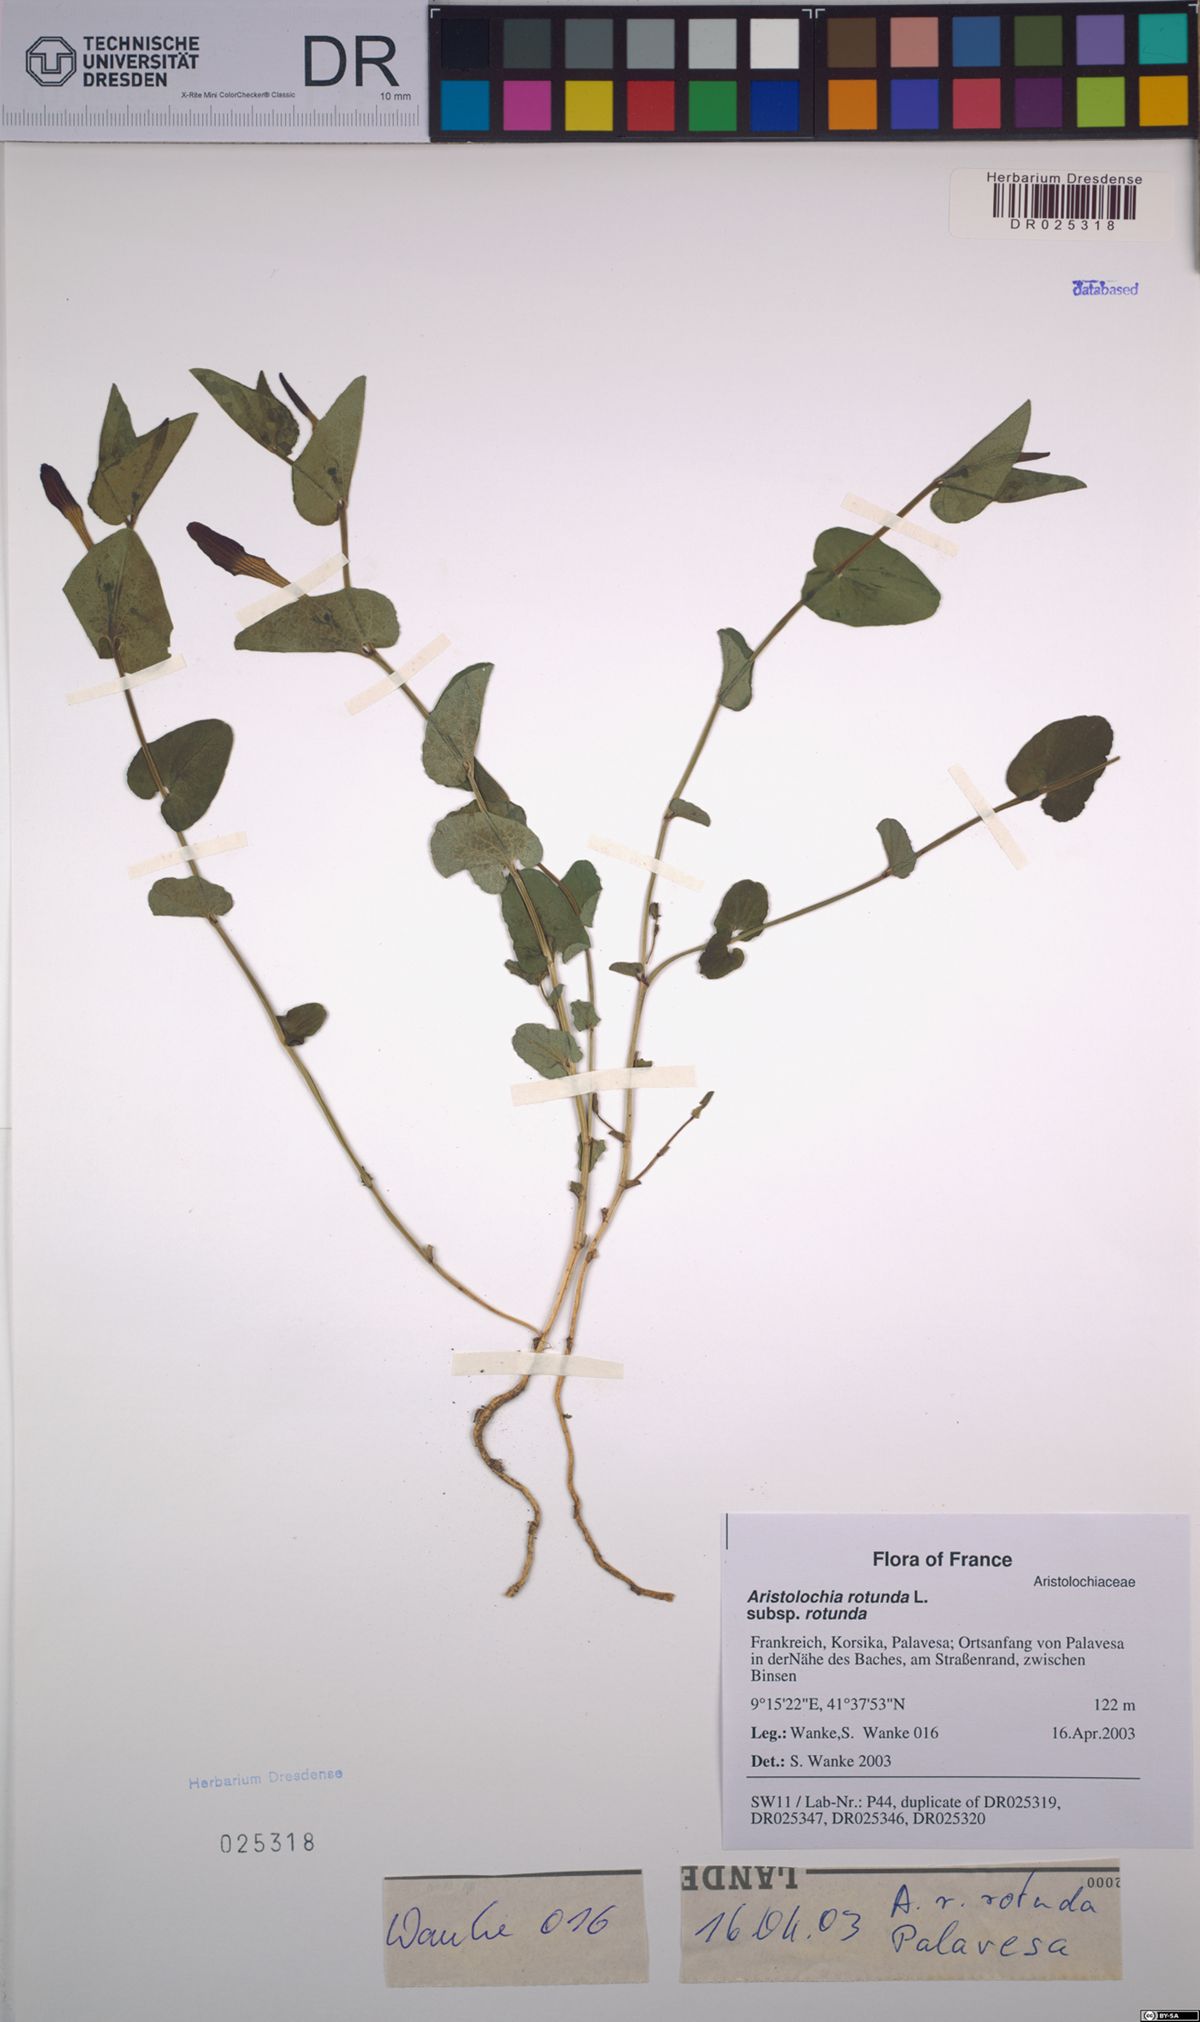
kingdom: Plantae
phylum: Tracheophyta
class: Magnoliopsida
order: Piperales
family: Aristolochiaceae
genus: Aristolochia
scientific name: Aristolochia rotunda
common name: Smearwort
